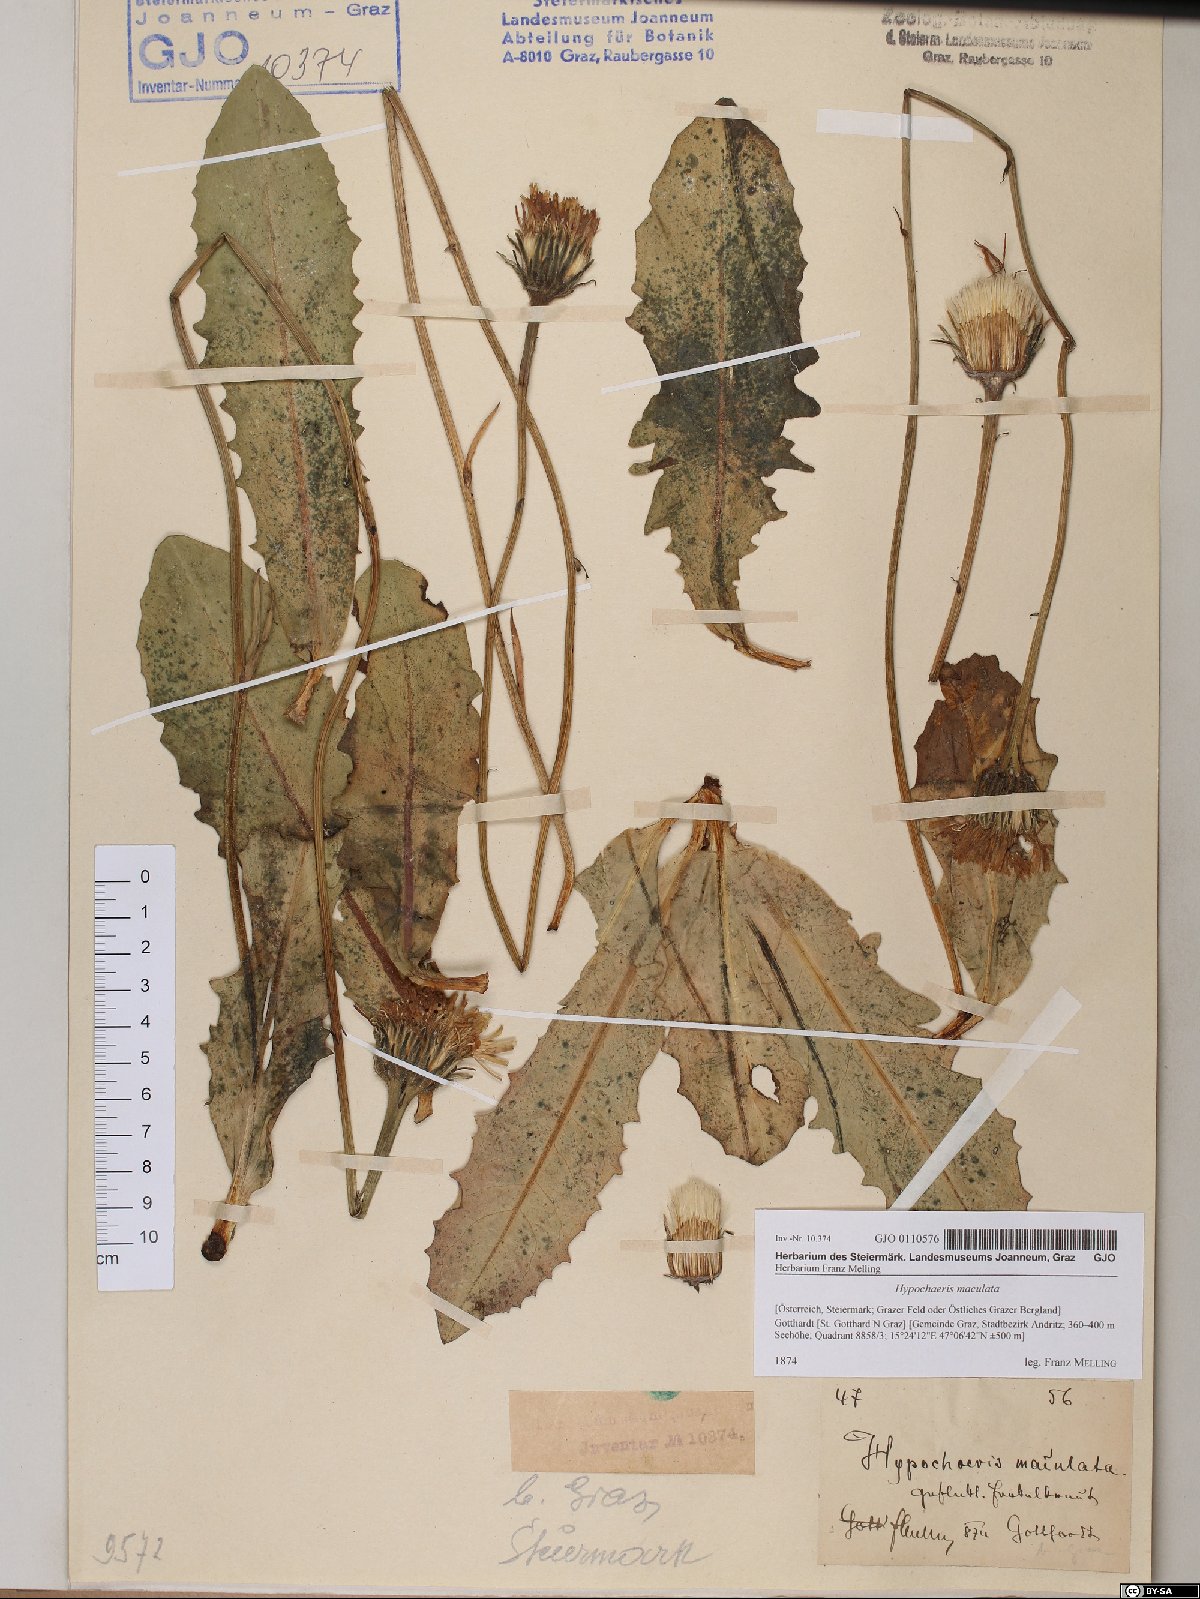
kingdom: Plantae
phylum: Tracheophyta
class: Magnoliopsida
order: Asterales
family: Asteraceae
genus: Trommsdorffia
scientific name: Trommsdorffia maculata
